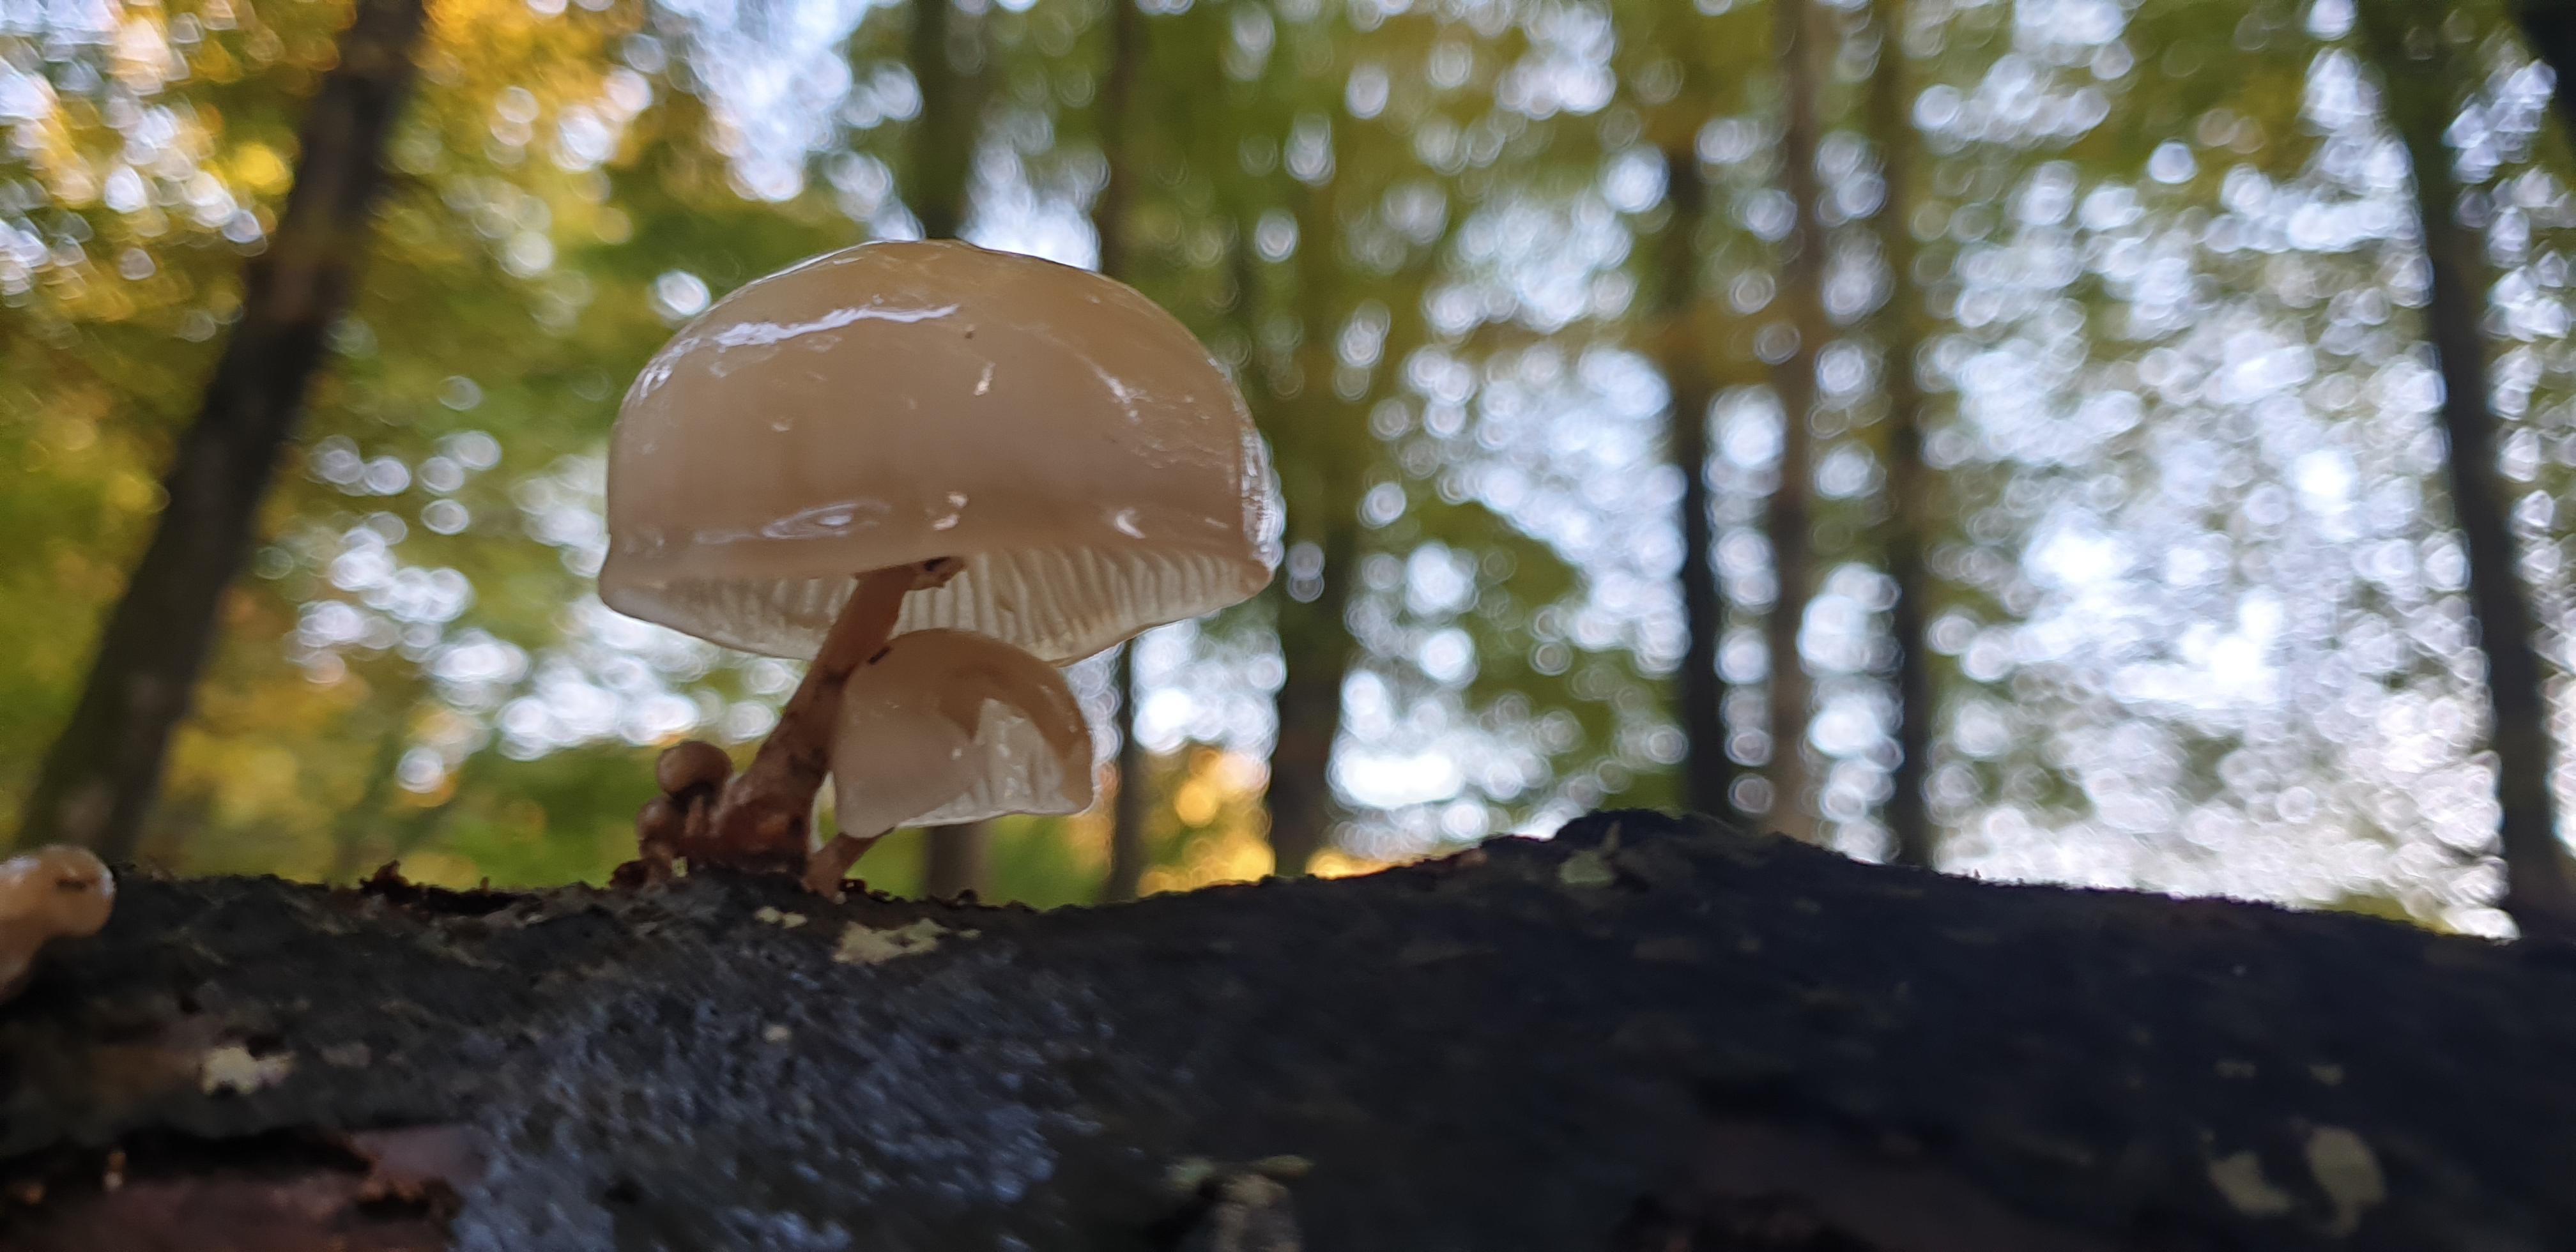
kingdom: Fungi
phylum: Basidiomycota
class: Agaricomycetes
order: Agaricales
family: Physalacriaceae
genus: Mucidula
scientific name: Mucidula mucida
